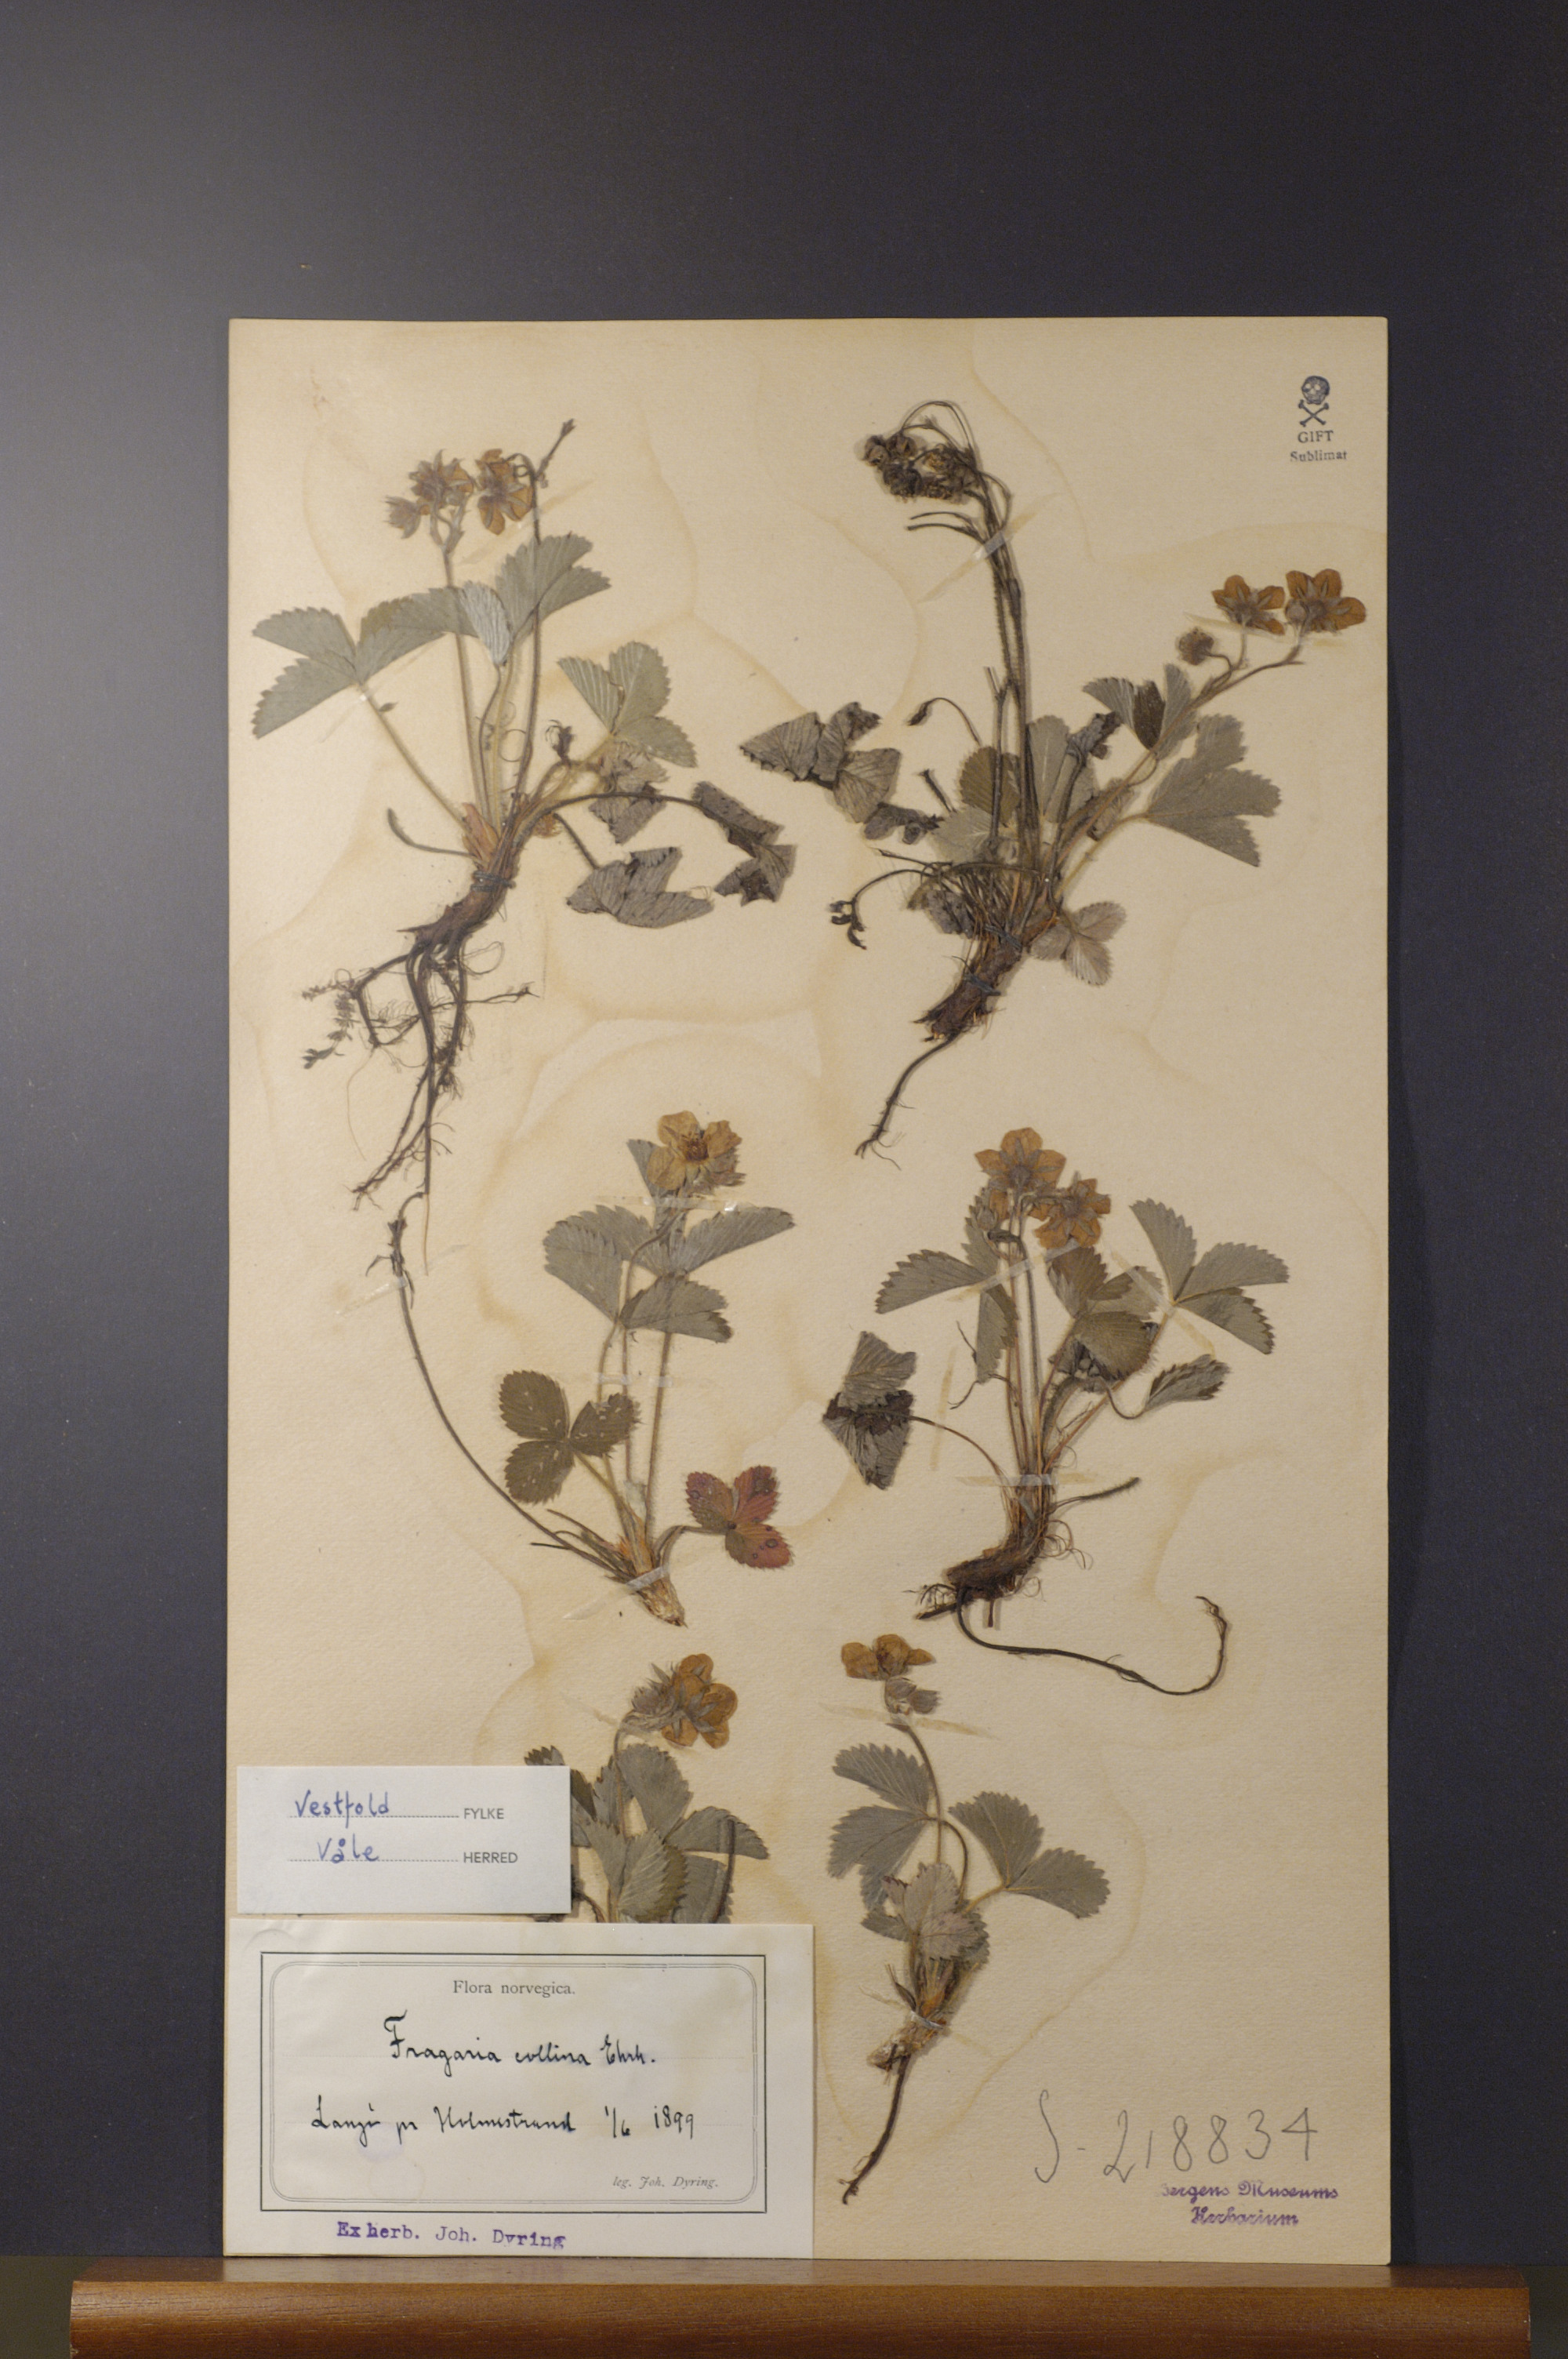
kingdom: Plantae
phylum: Tracheophyta
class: Magnoliopsida
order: Rosales
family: Rosaceae
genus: Fragaria
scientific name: Fragaria viridis
